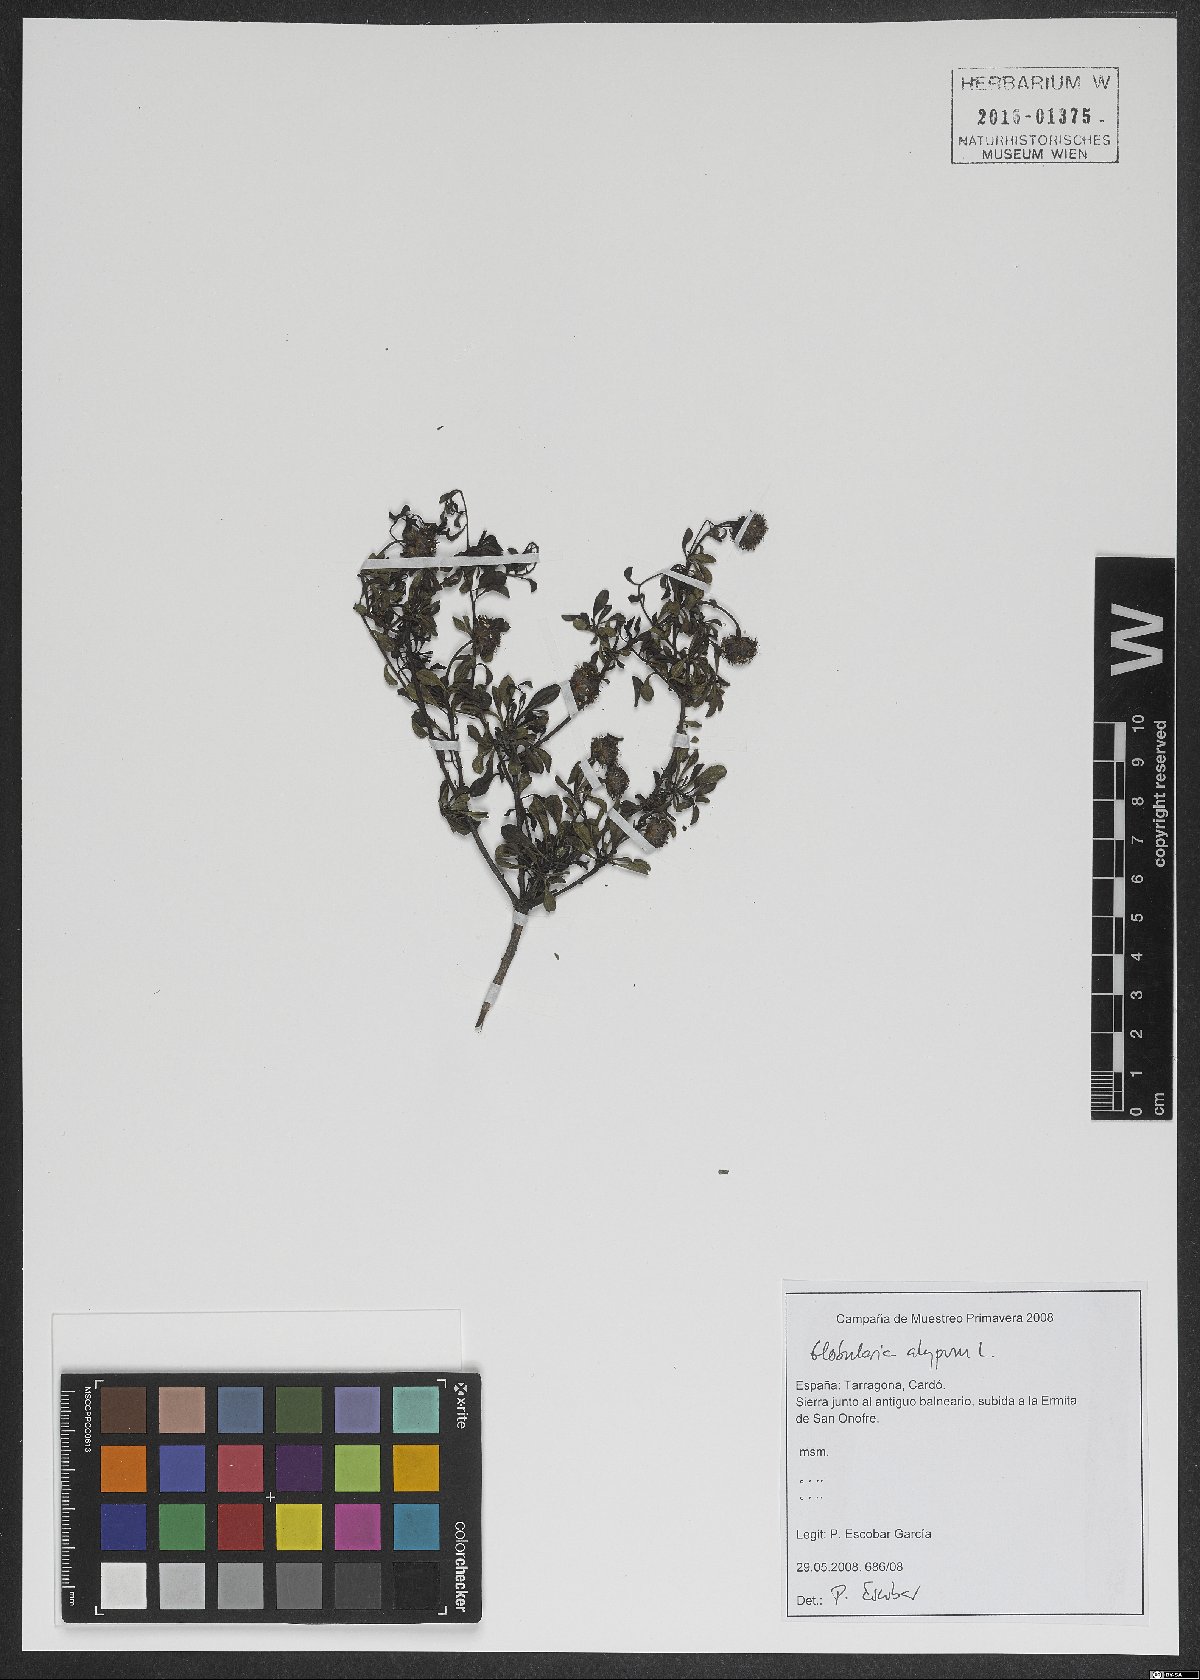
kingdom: Plantae
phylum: Tracheophyta
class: Magnoliopsida
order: Lamiales
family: Plantaginaceae
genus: Globularia
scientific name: Globularia alypum
